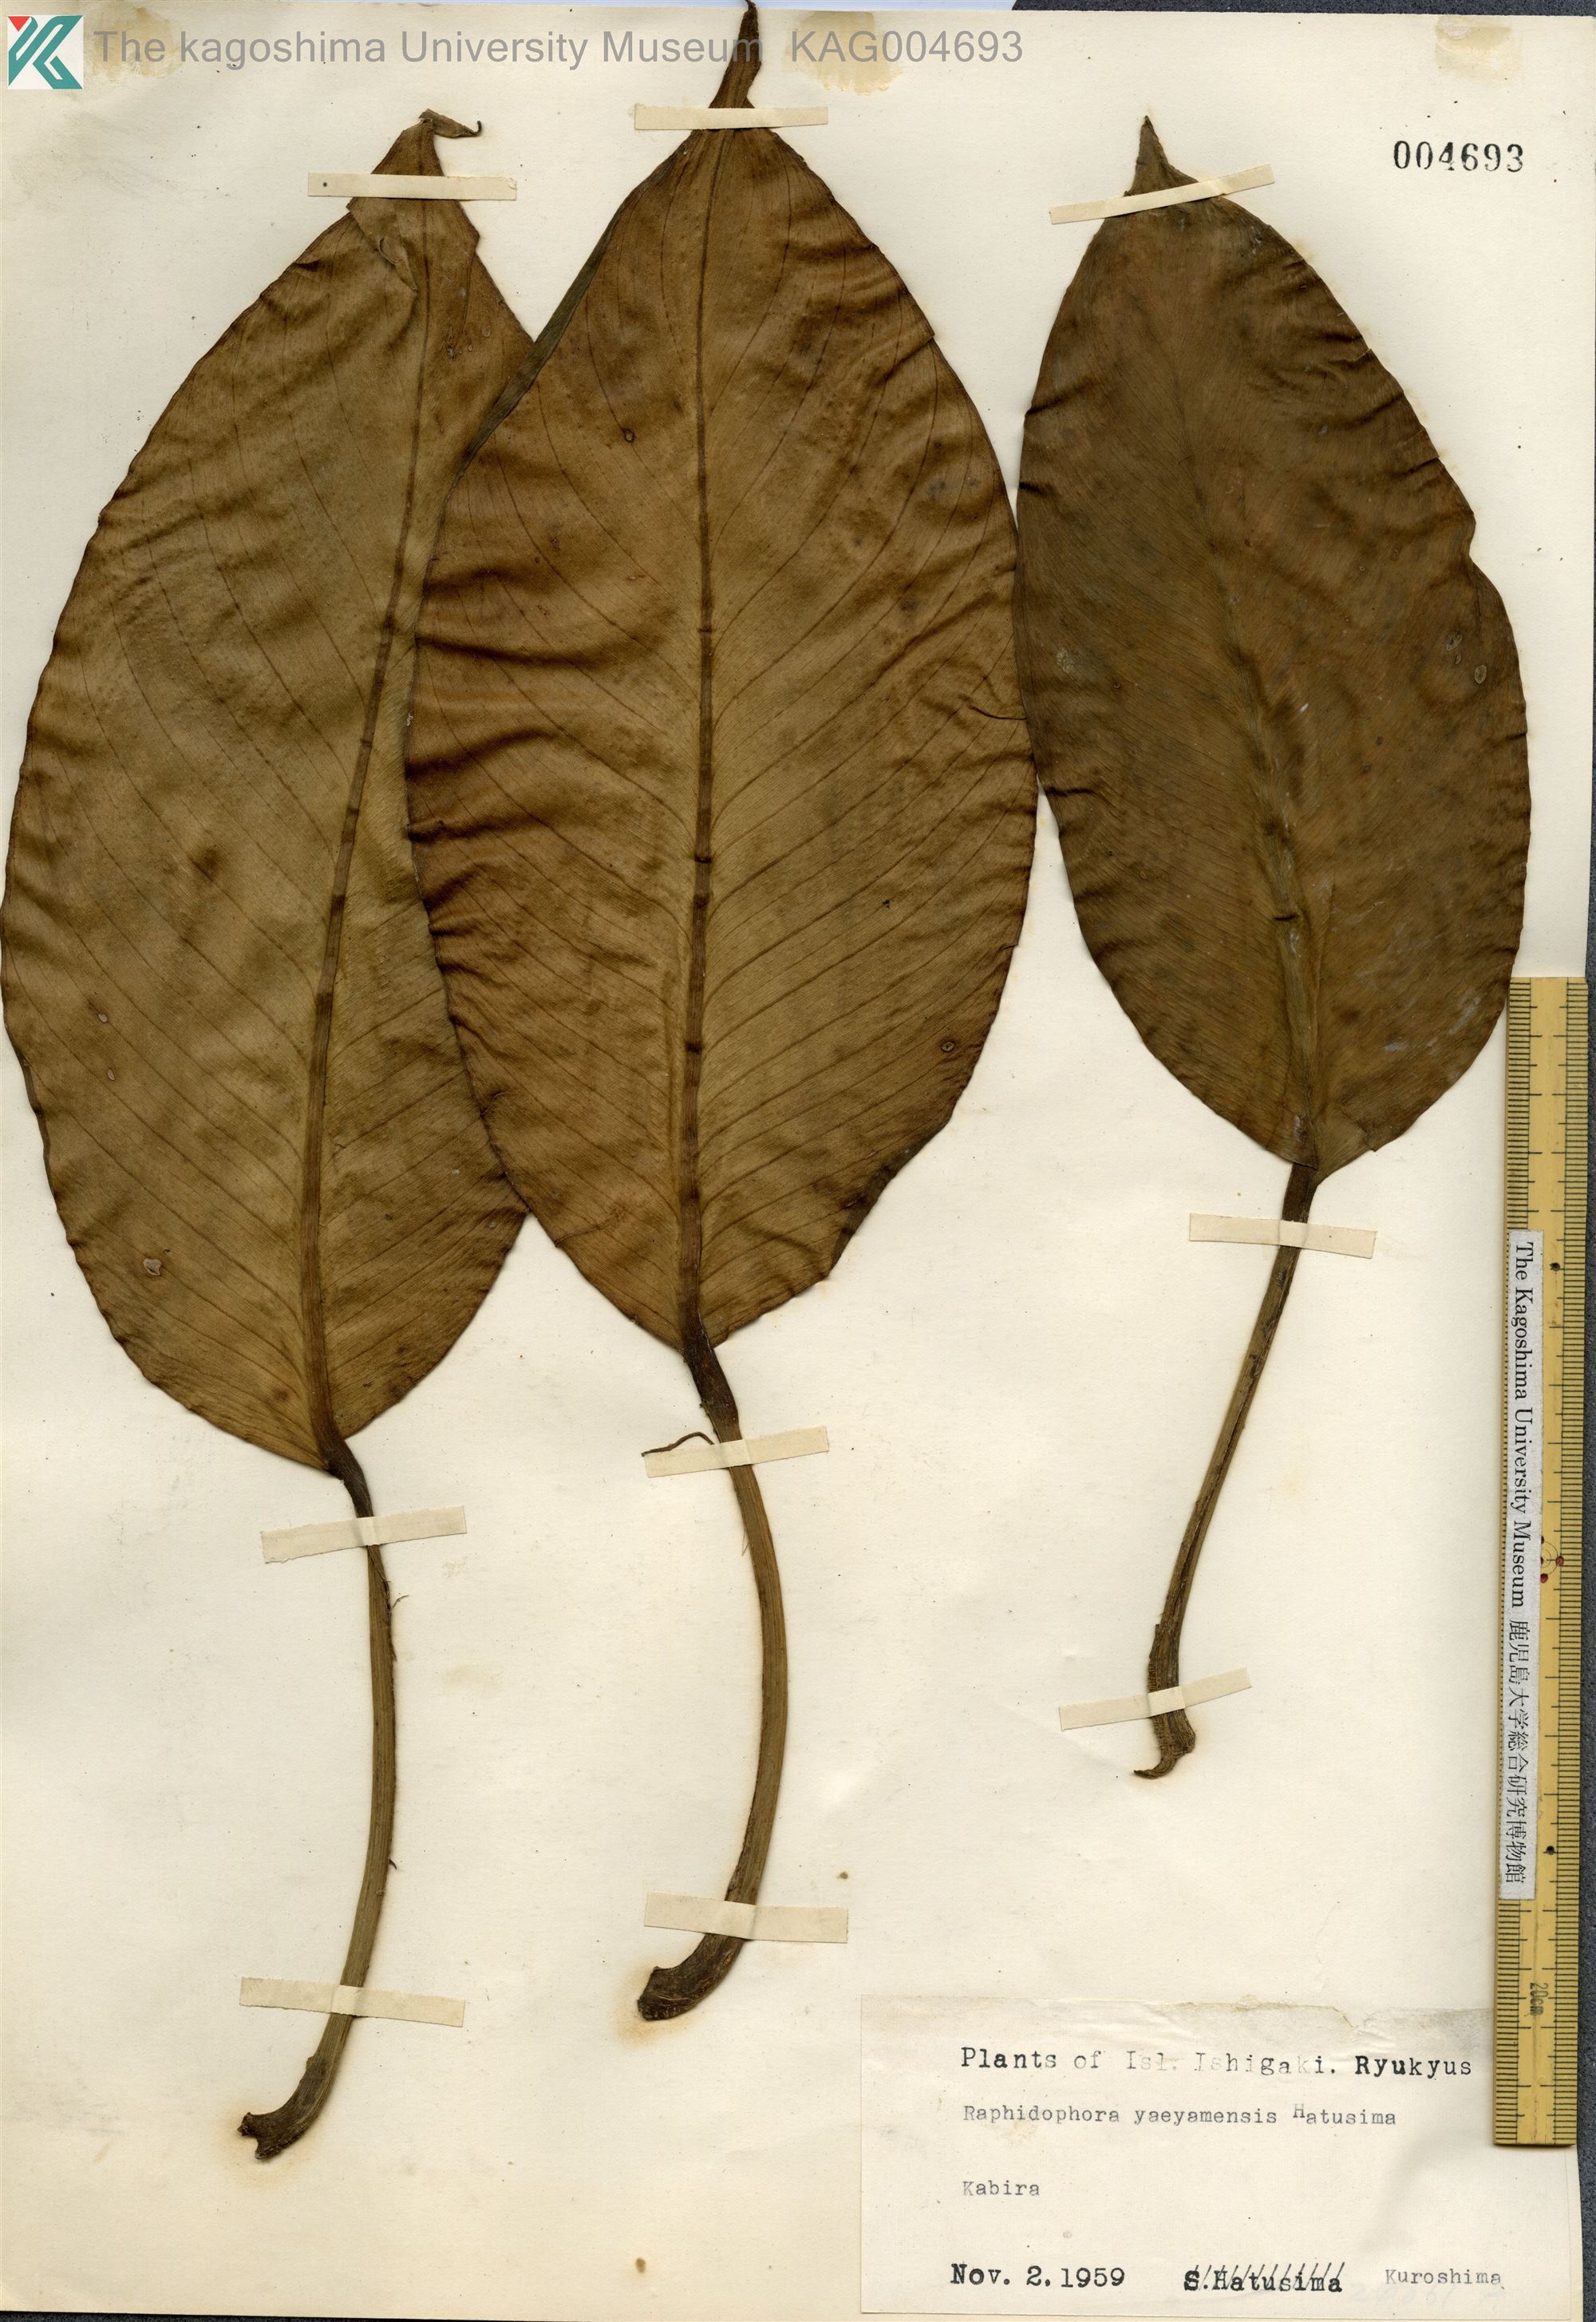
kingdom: Plantae
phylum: Tracheophyta
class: Liliopsida
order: Alismatales
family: Araceae
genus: Rhaphidophora
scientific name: Rhaphidophora
